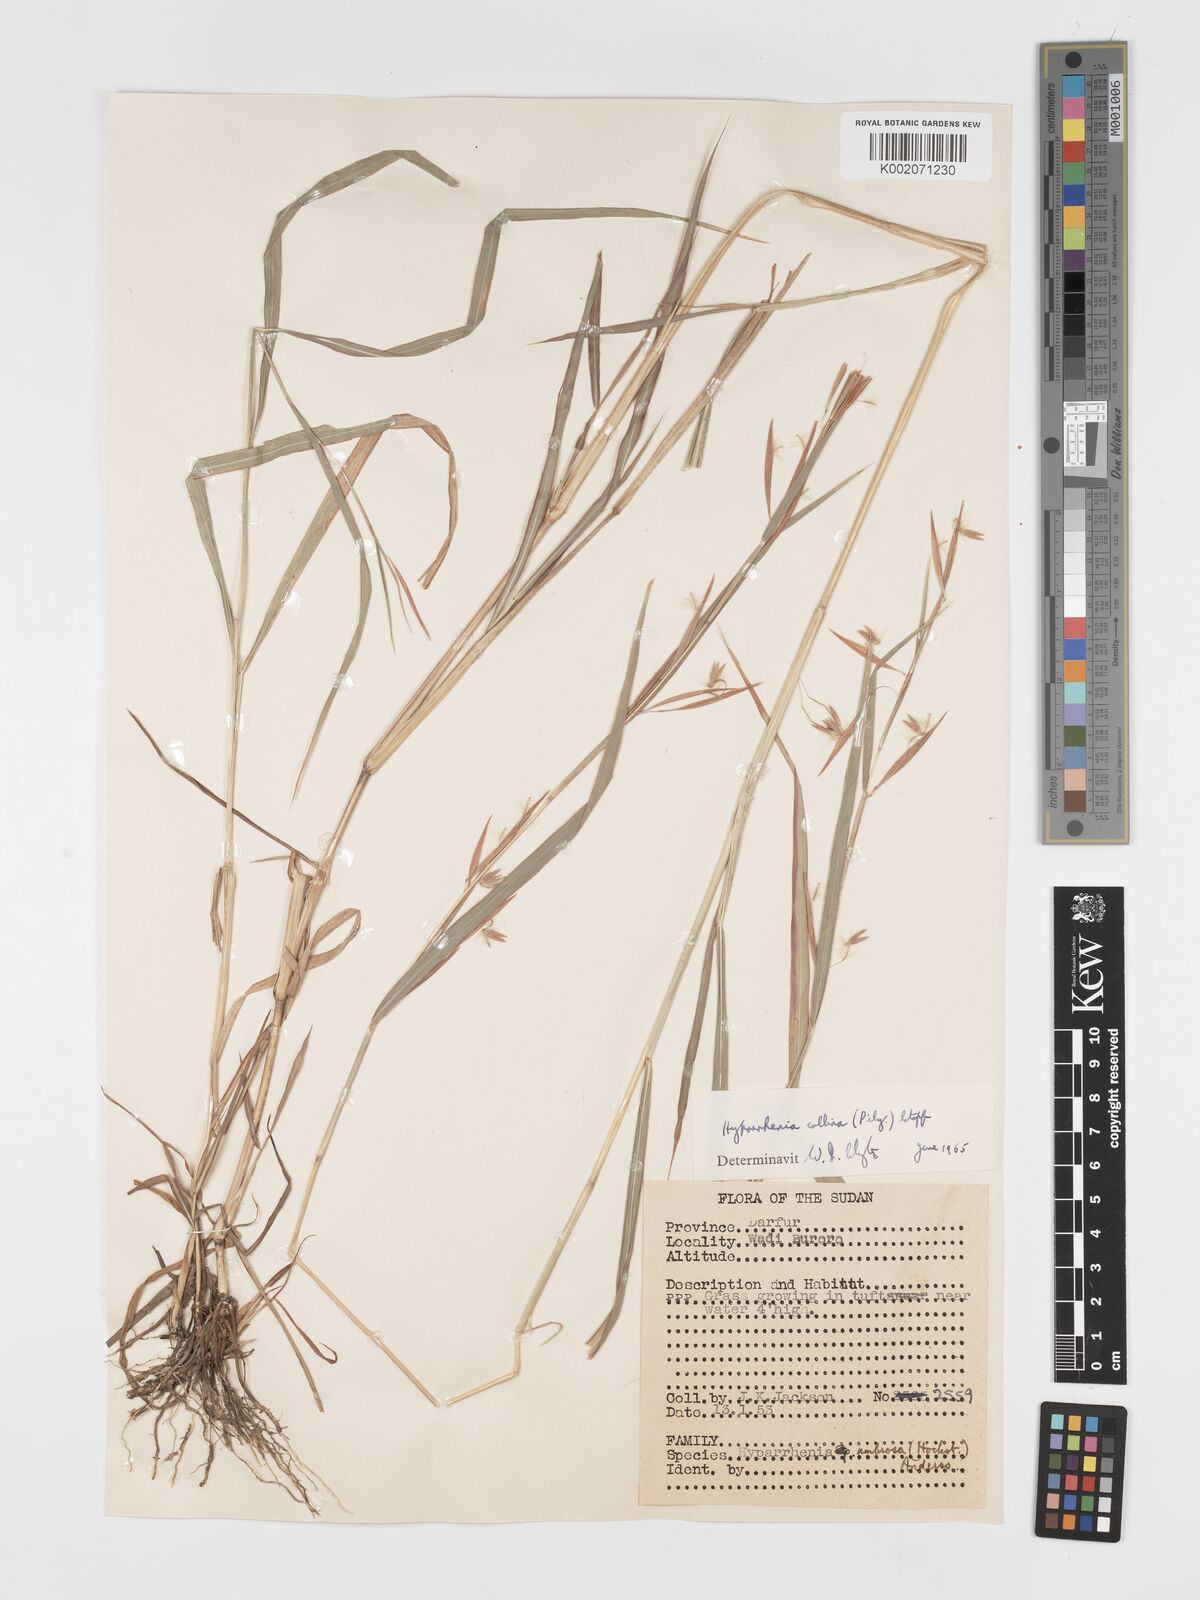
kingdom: Plantae
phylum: Tracheophyta
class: Liliopsida
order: Poales
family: Poaceae
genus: Hyparrhenia
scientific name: Hyparrhenia collina
